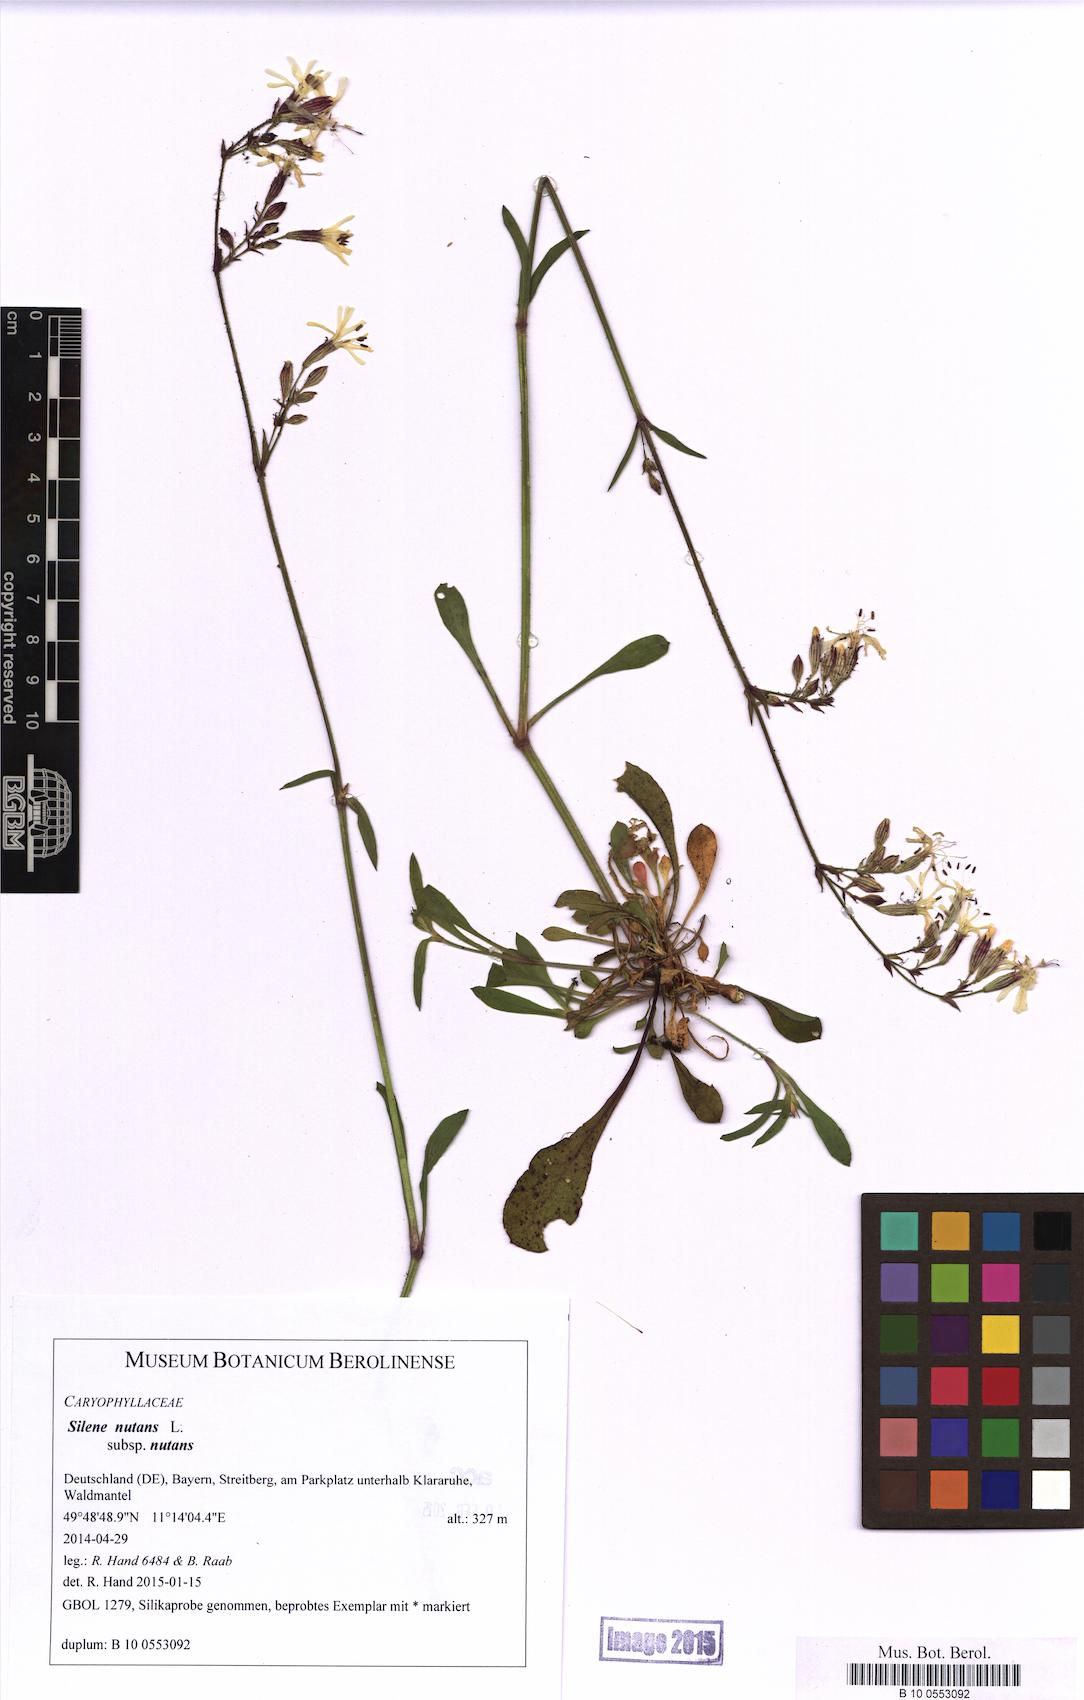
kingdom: Plantae
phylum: Tracheophyta
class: Magnoliopsida
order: Caryophyllales
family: Caryophyllaceae
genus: Silene
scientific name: Silene nutans
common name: Nottingham catchfly
